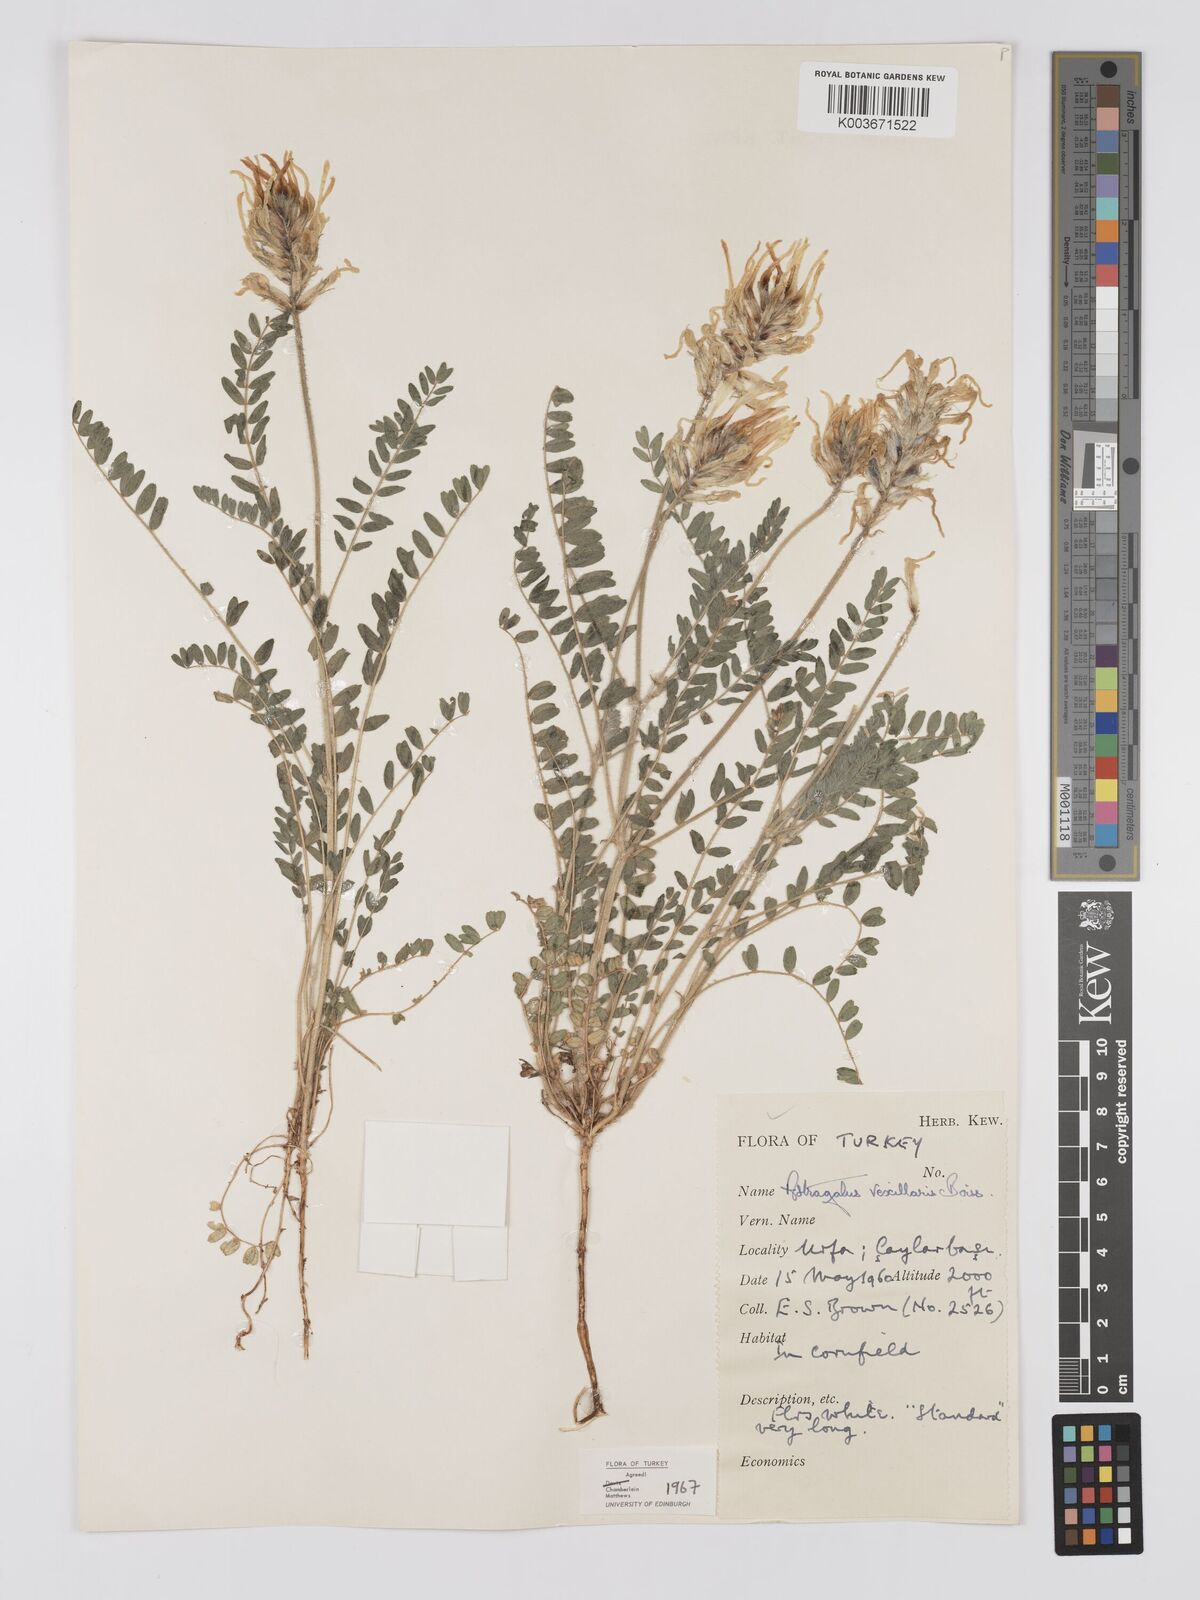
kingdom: Plantae
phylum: Tracheophyta
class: Magnoliopsida
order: Fabales
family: Fabaceae
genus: Astragalus
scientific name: Astragalus vexillaris
